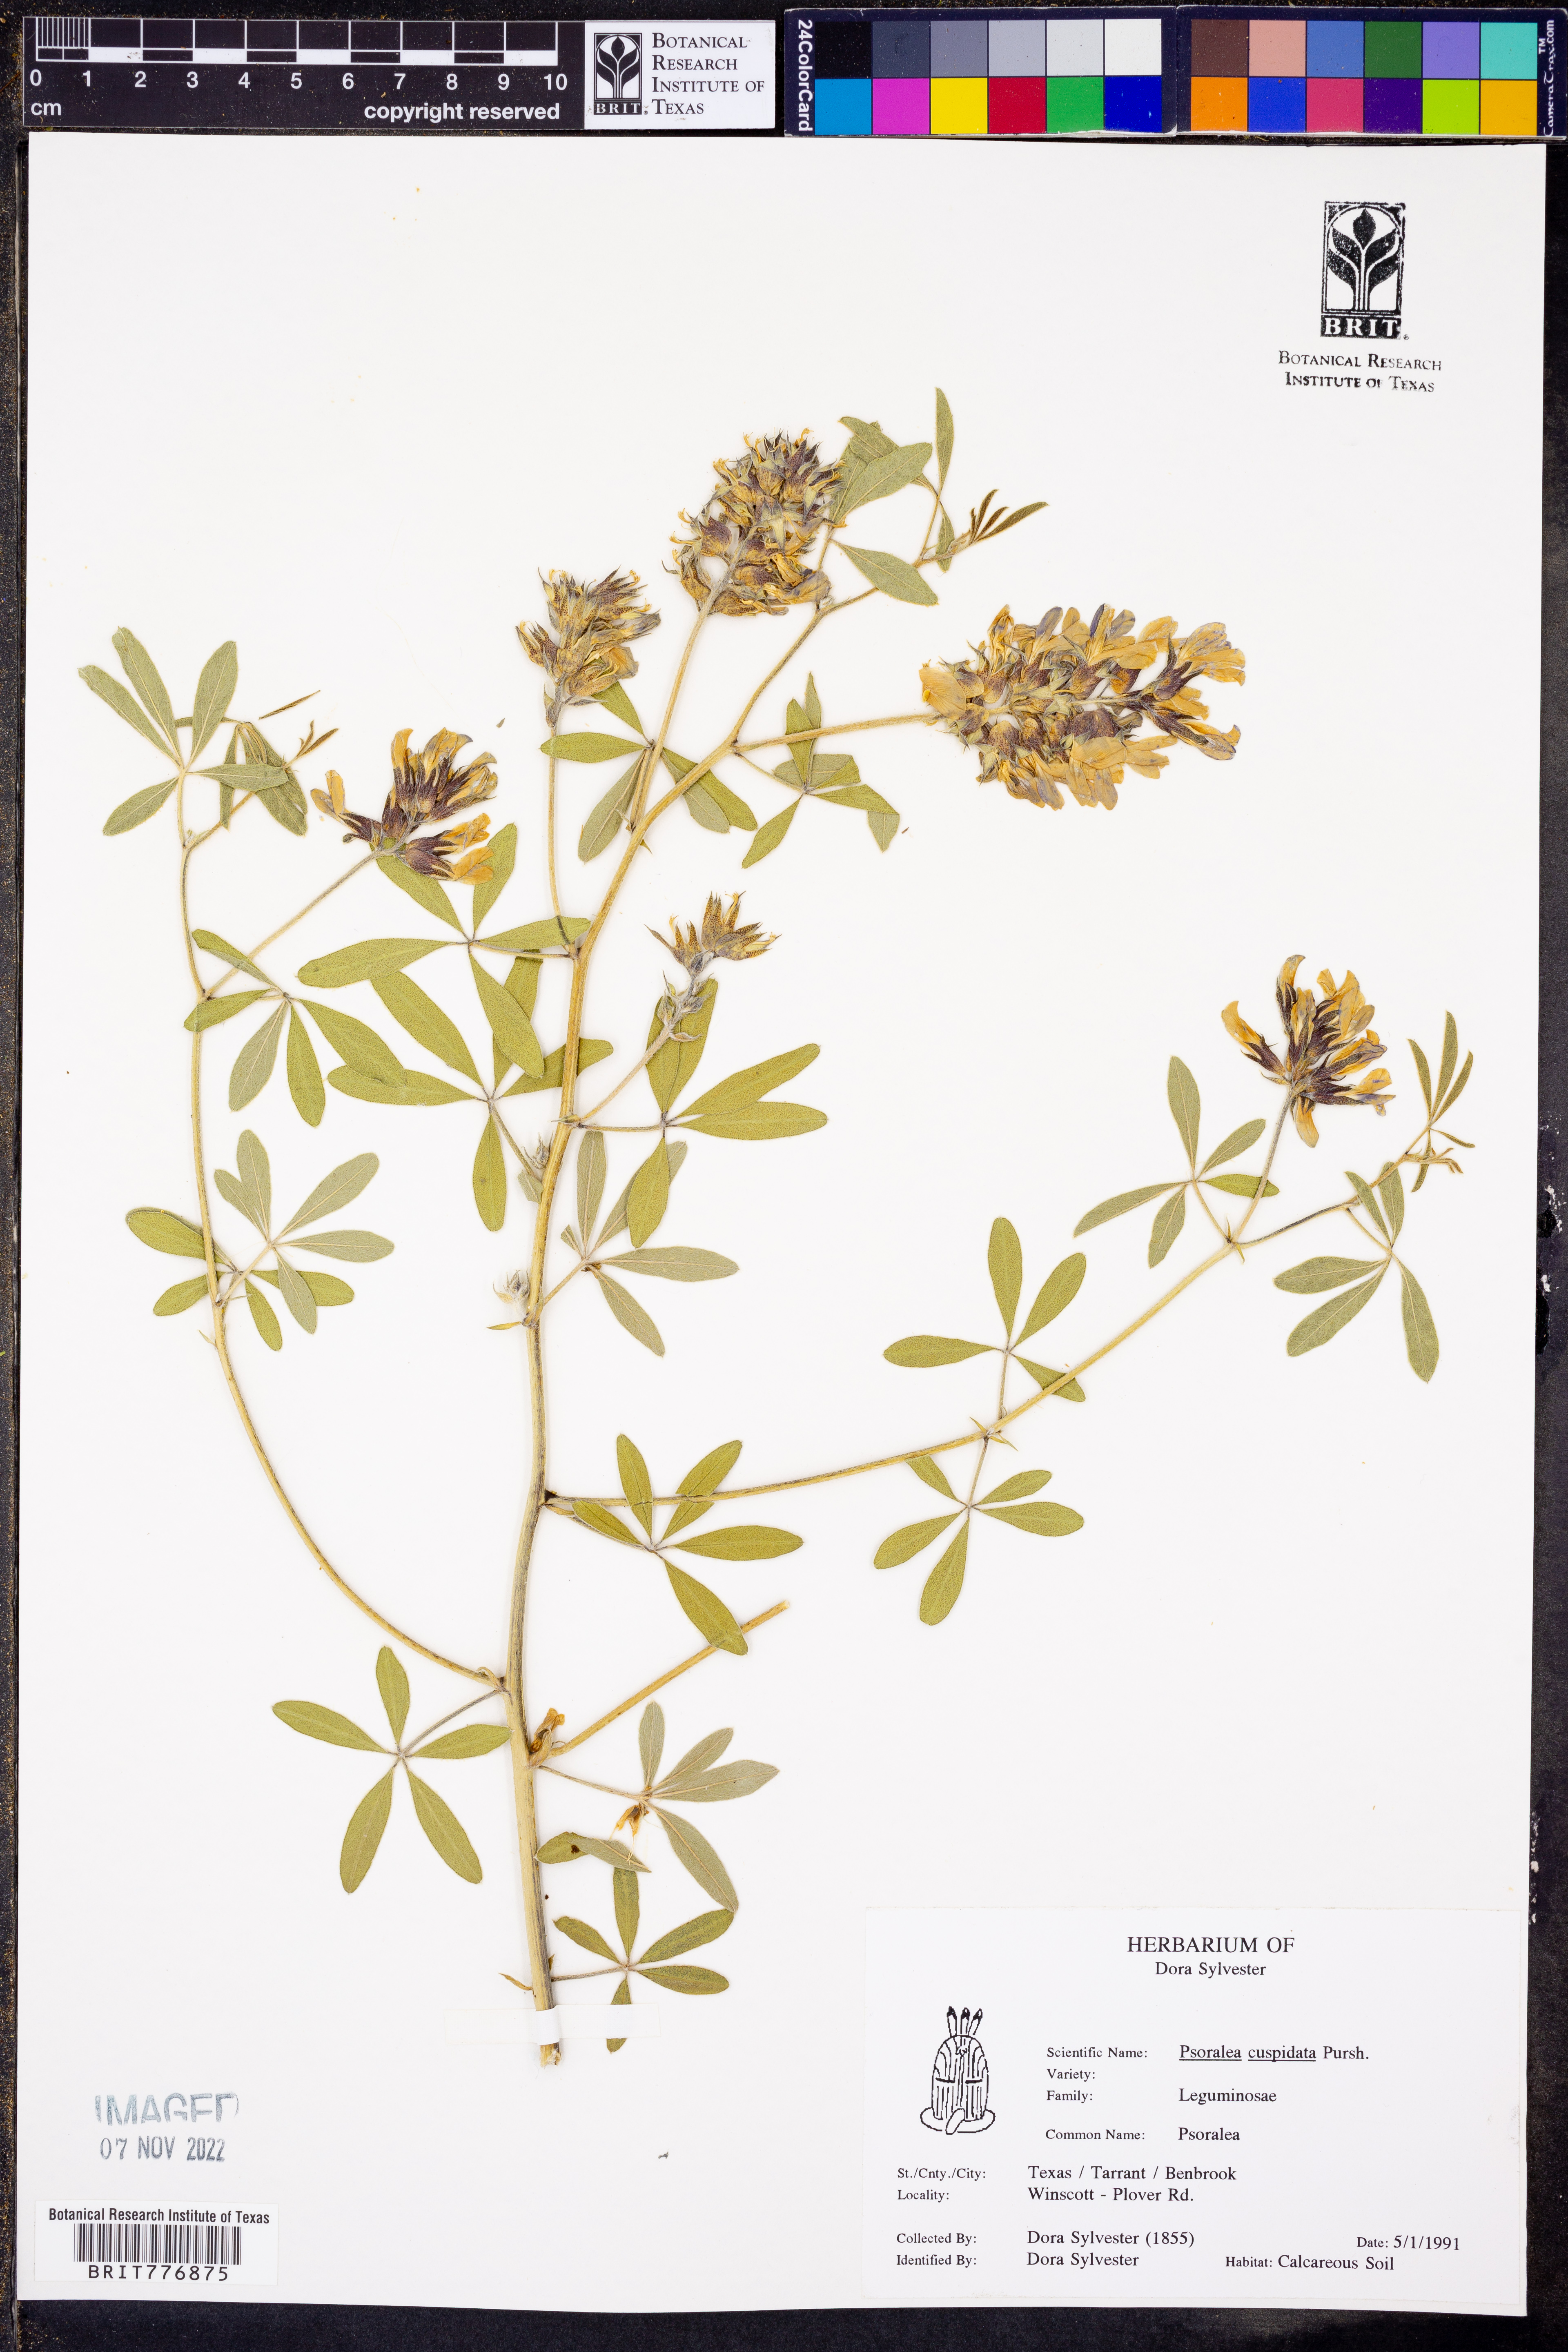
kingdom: Plantae
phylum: Tracheophyta
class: Magnoliopsida
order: Fabales
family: Fabaceae
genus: Pediomelum
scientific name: Pediomelum cuspidatum
